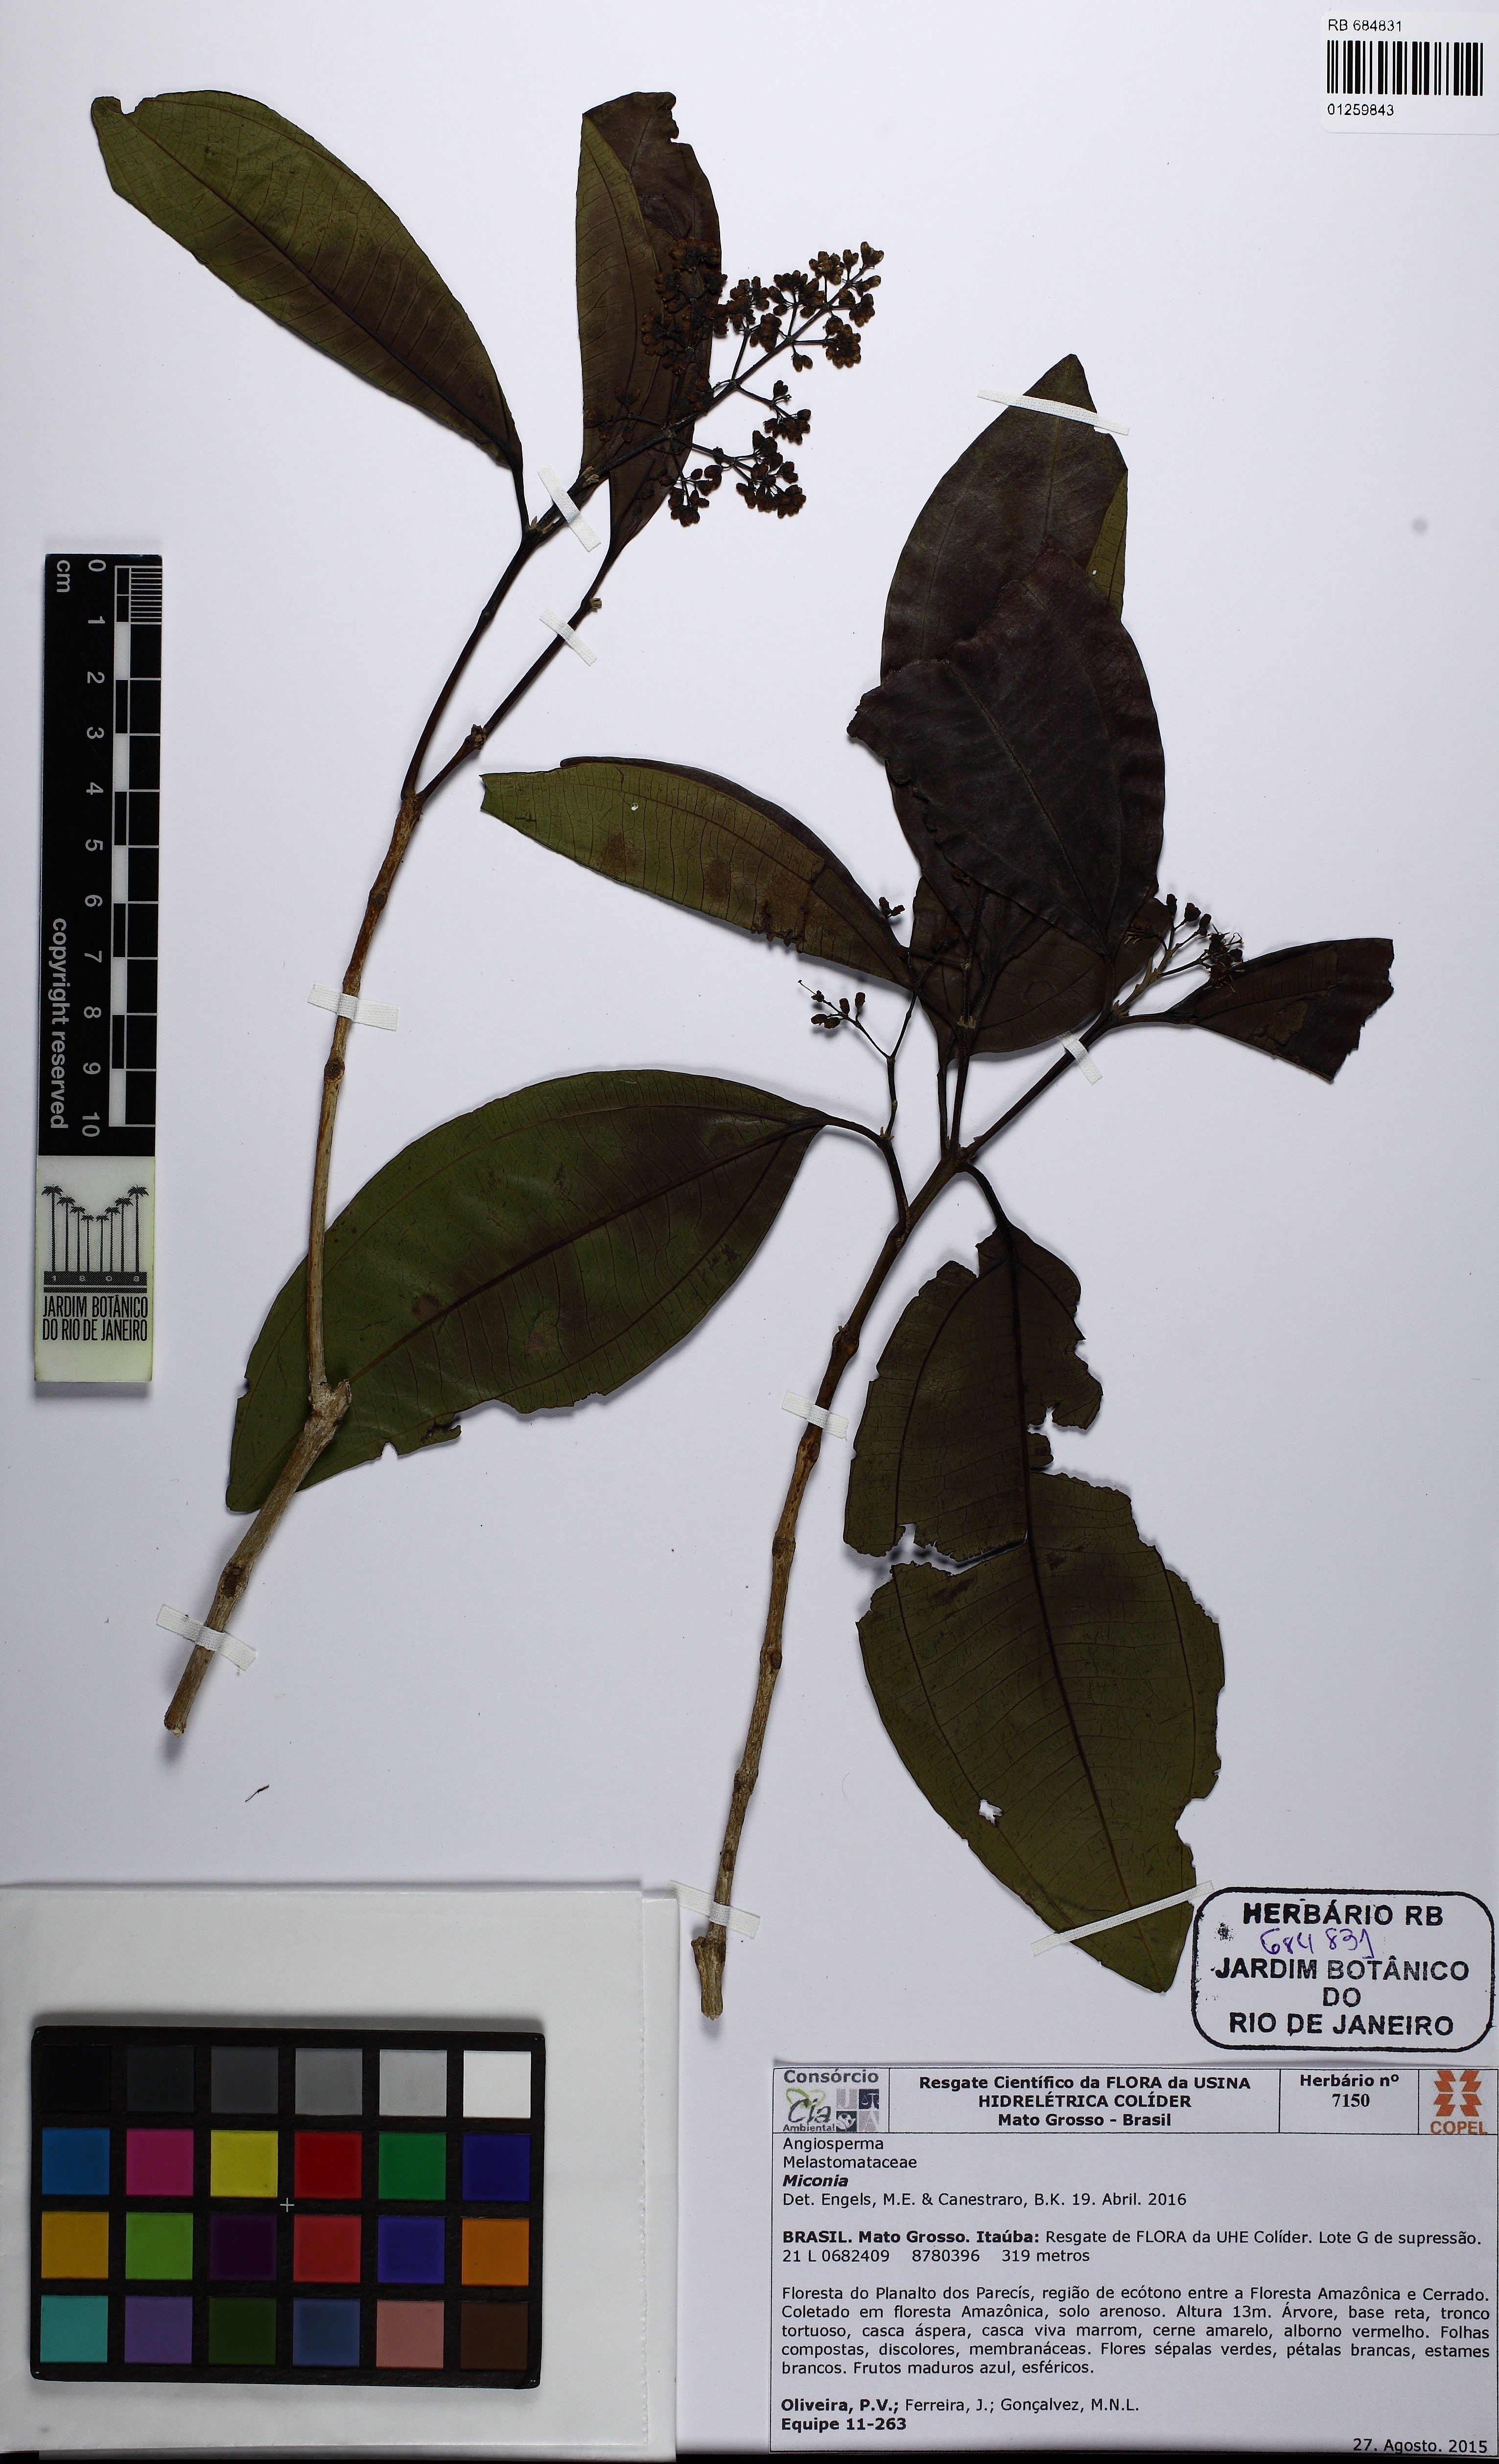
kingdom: Plantae
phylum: Tracheophyta
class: Magnoliopsida
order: Myrtales
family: Melastomataceae
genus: Miconia
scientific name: Miconia poeppigii
